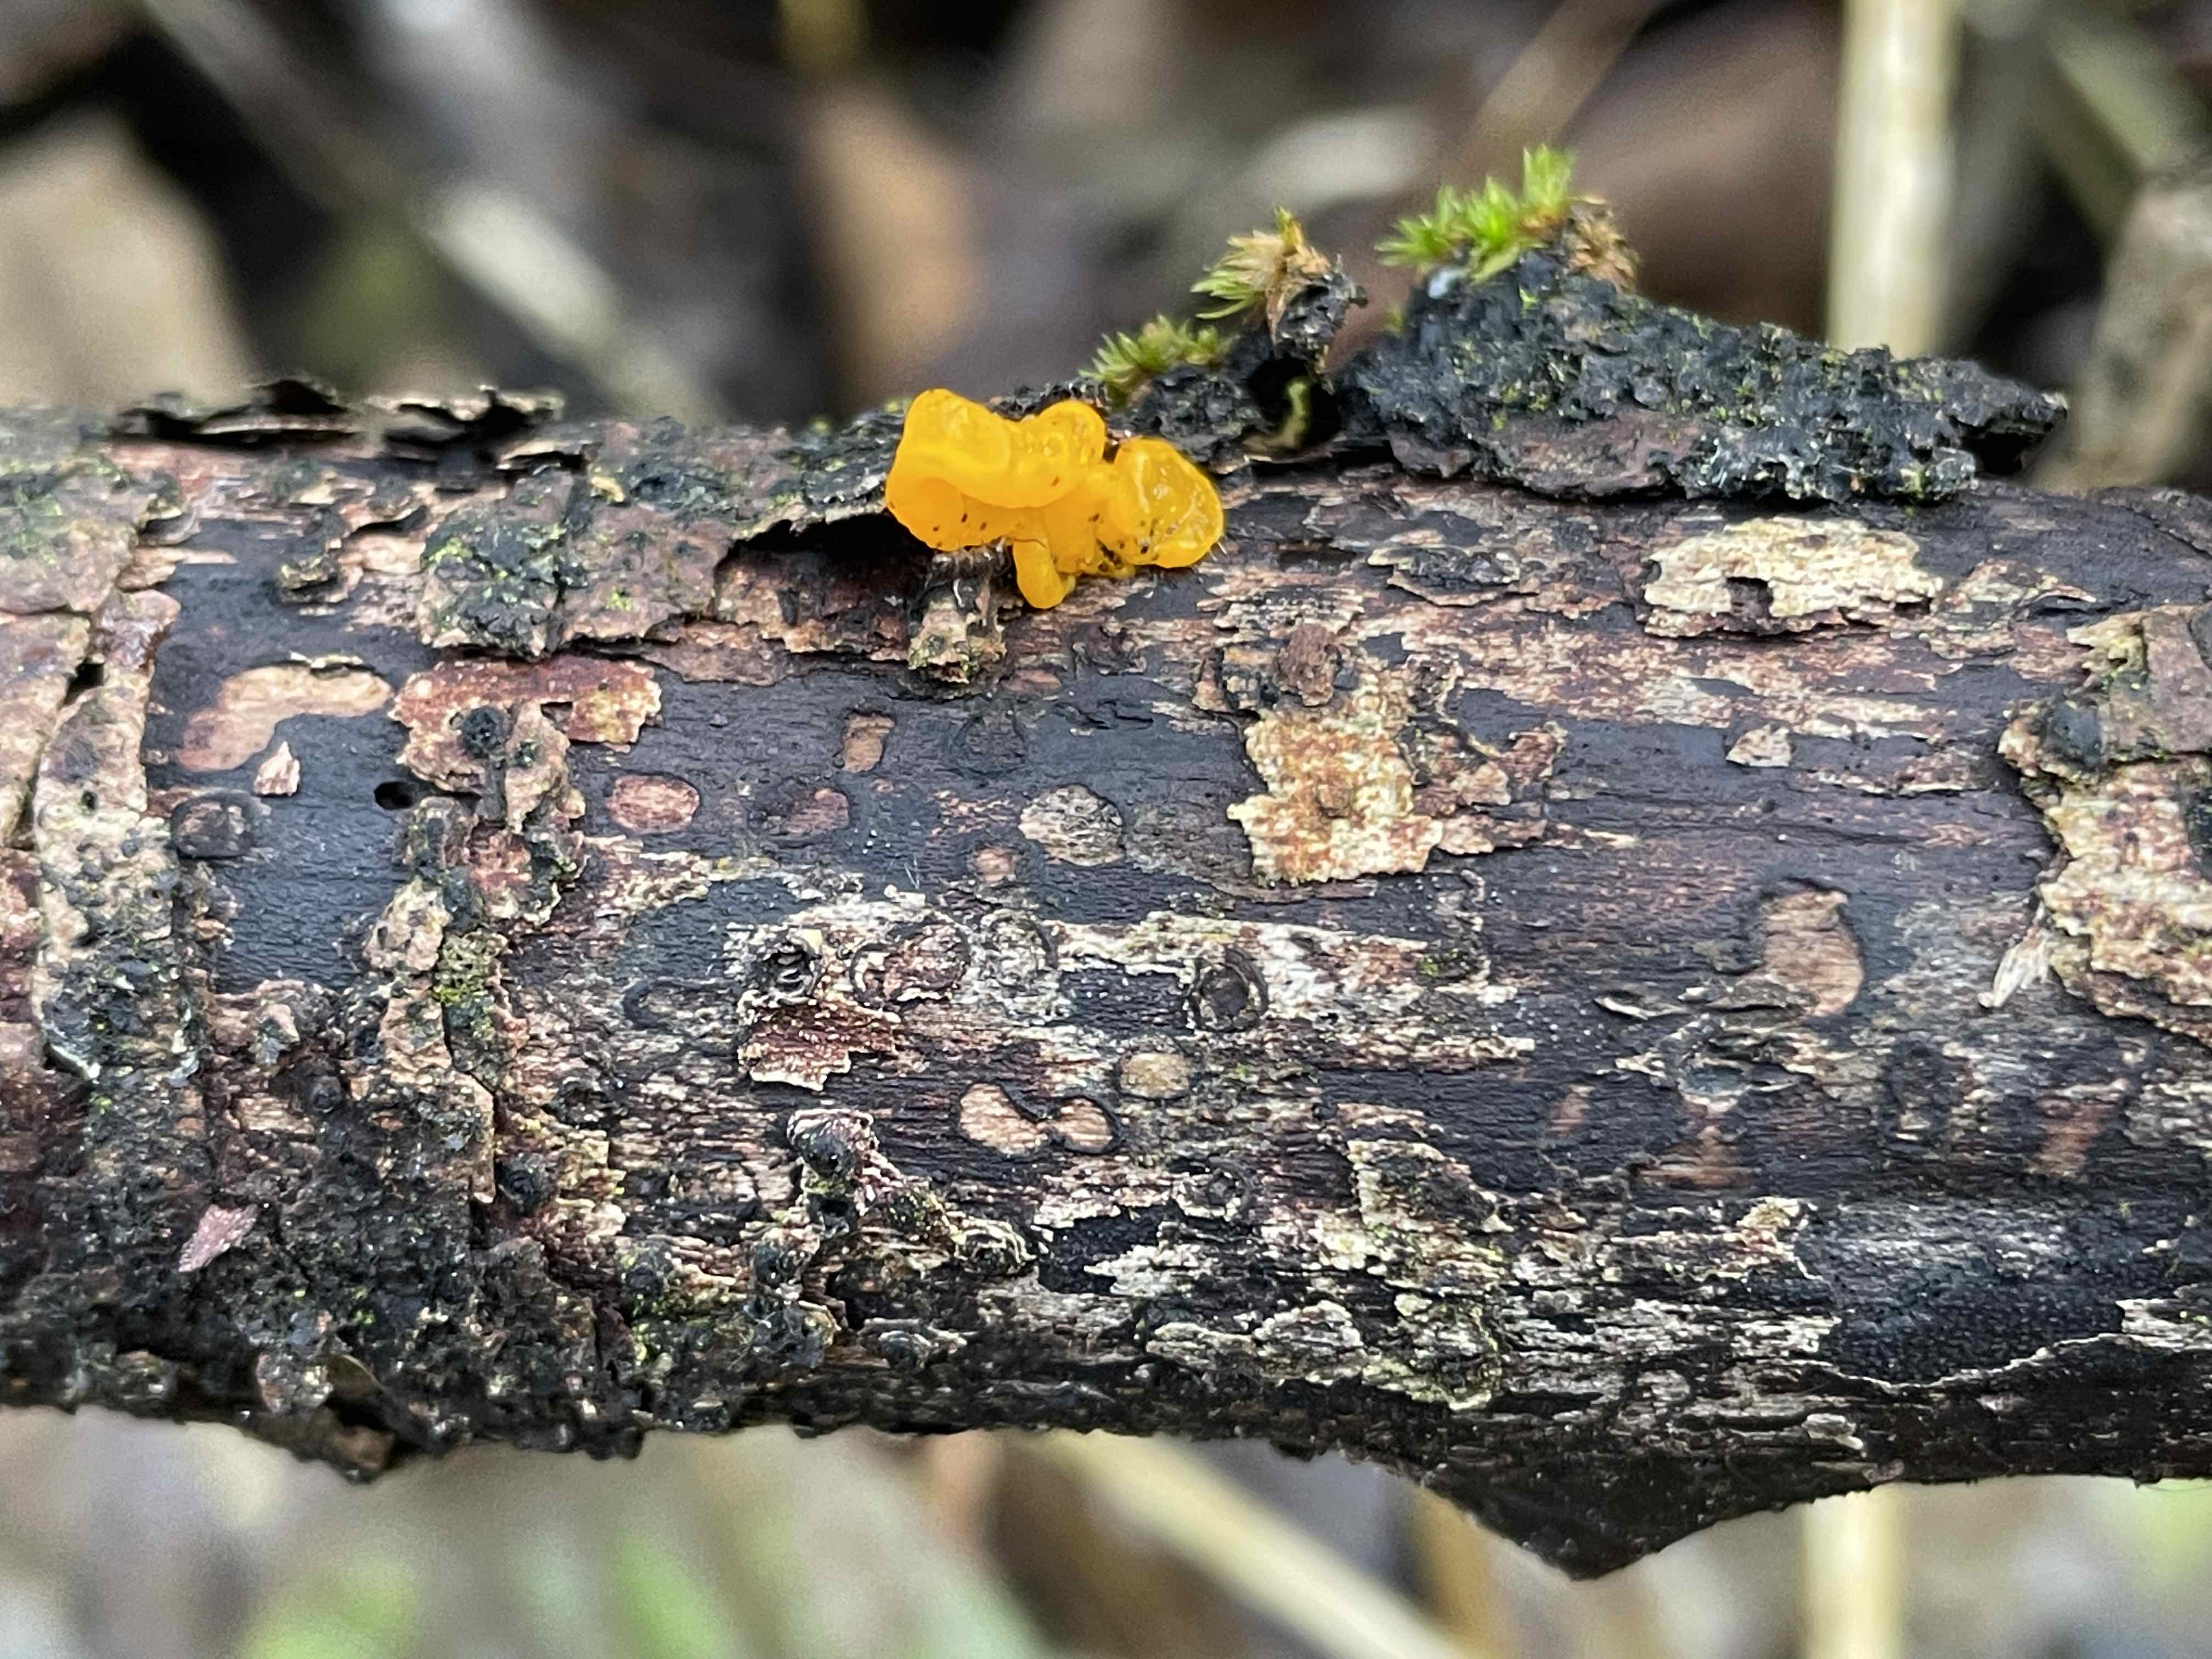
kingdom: Fungi
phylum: Basidiomycota
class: Tremellomycetes
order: Tremellales
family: Tremellaceae
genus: Tremella
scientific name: Tremella mesenterica
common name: gul bævresvamp
